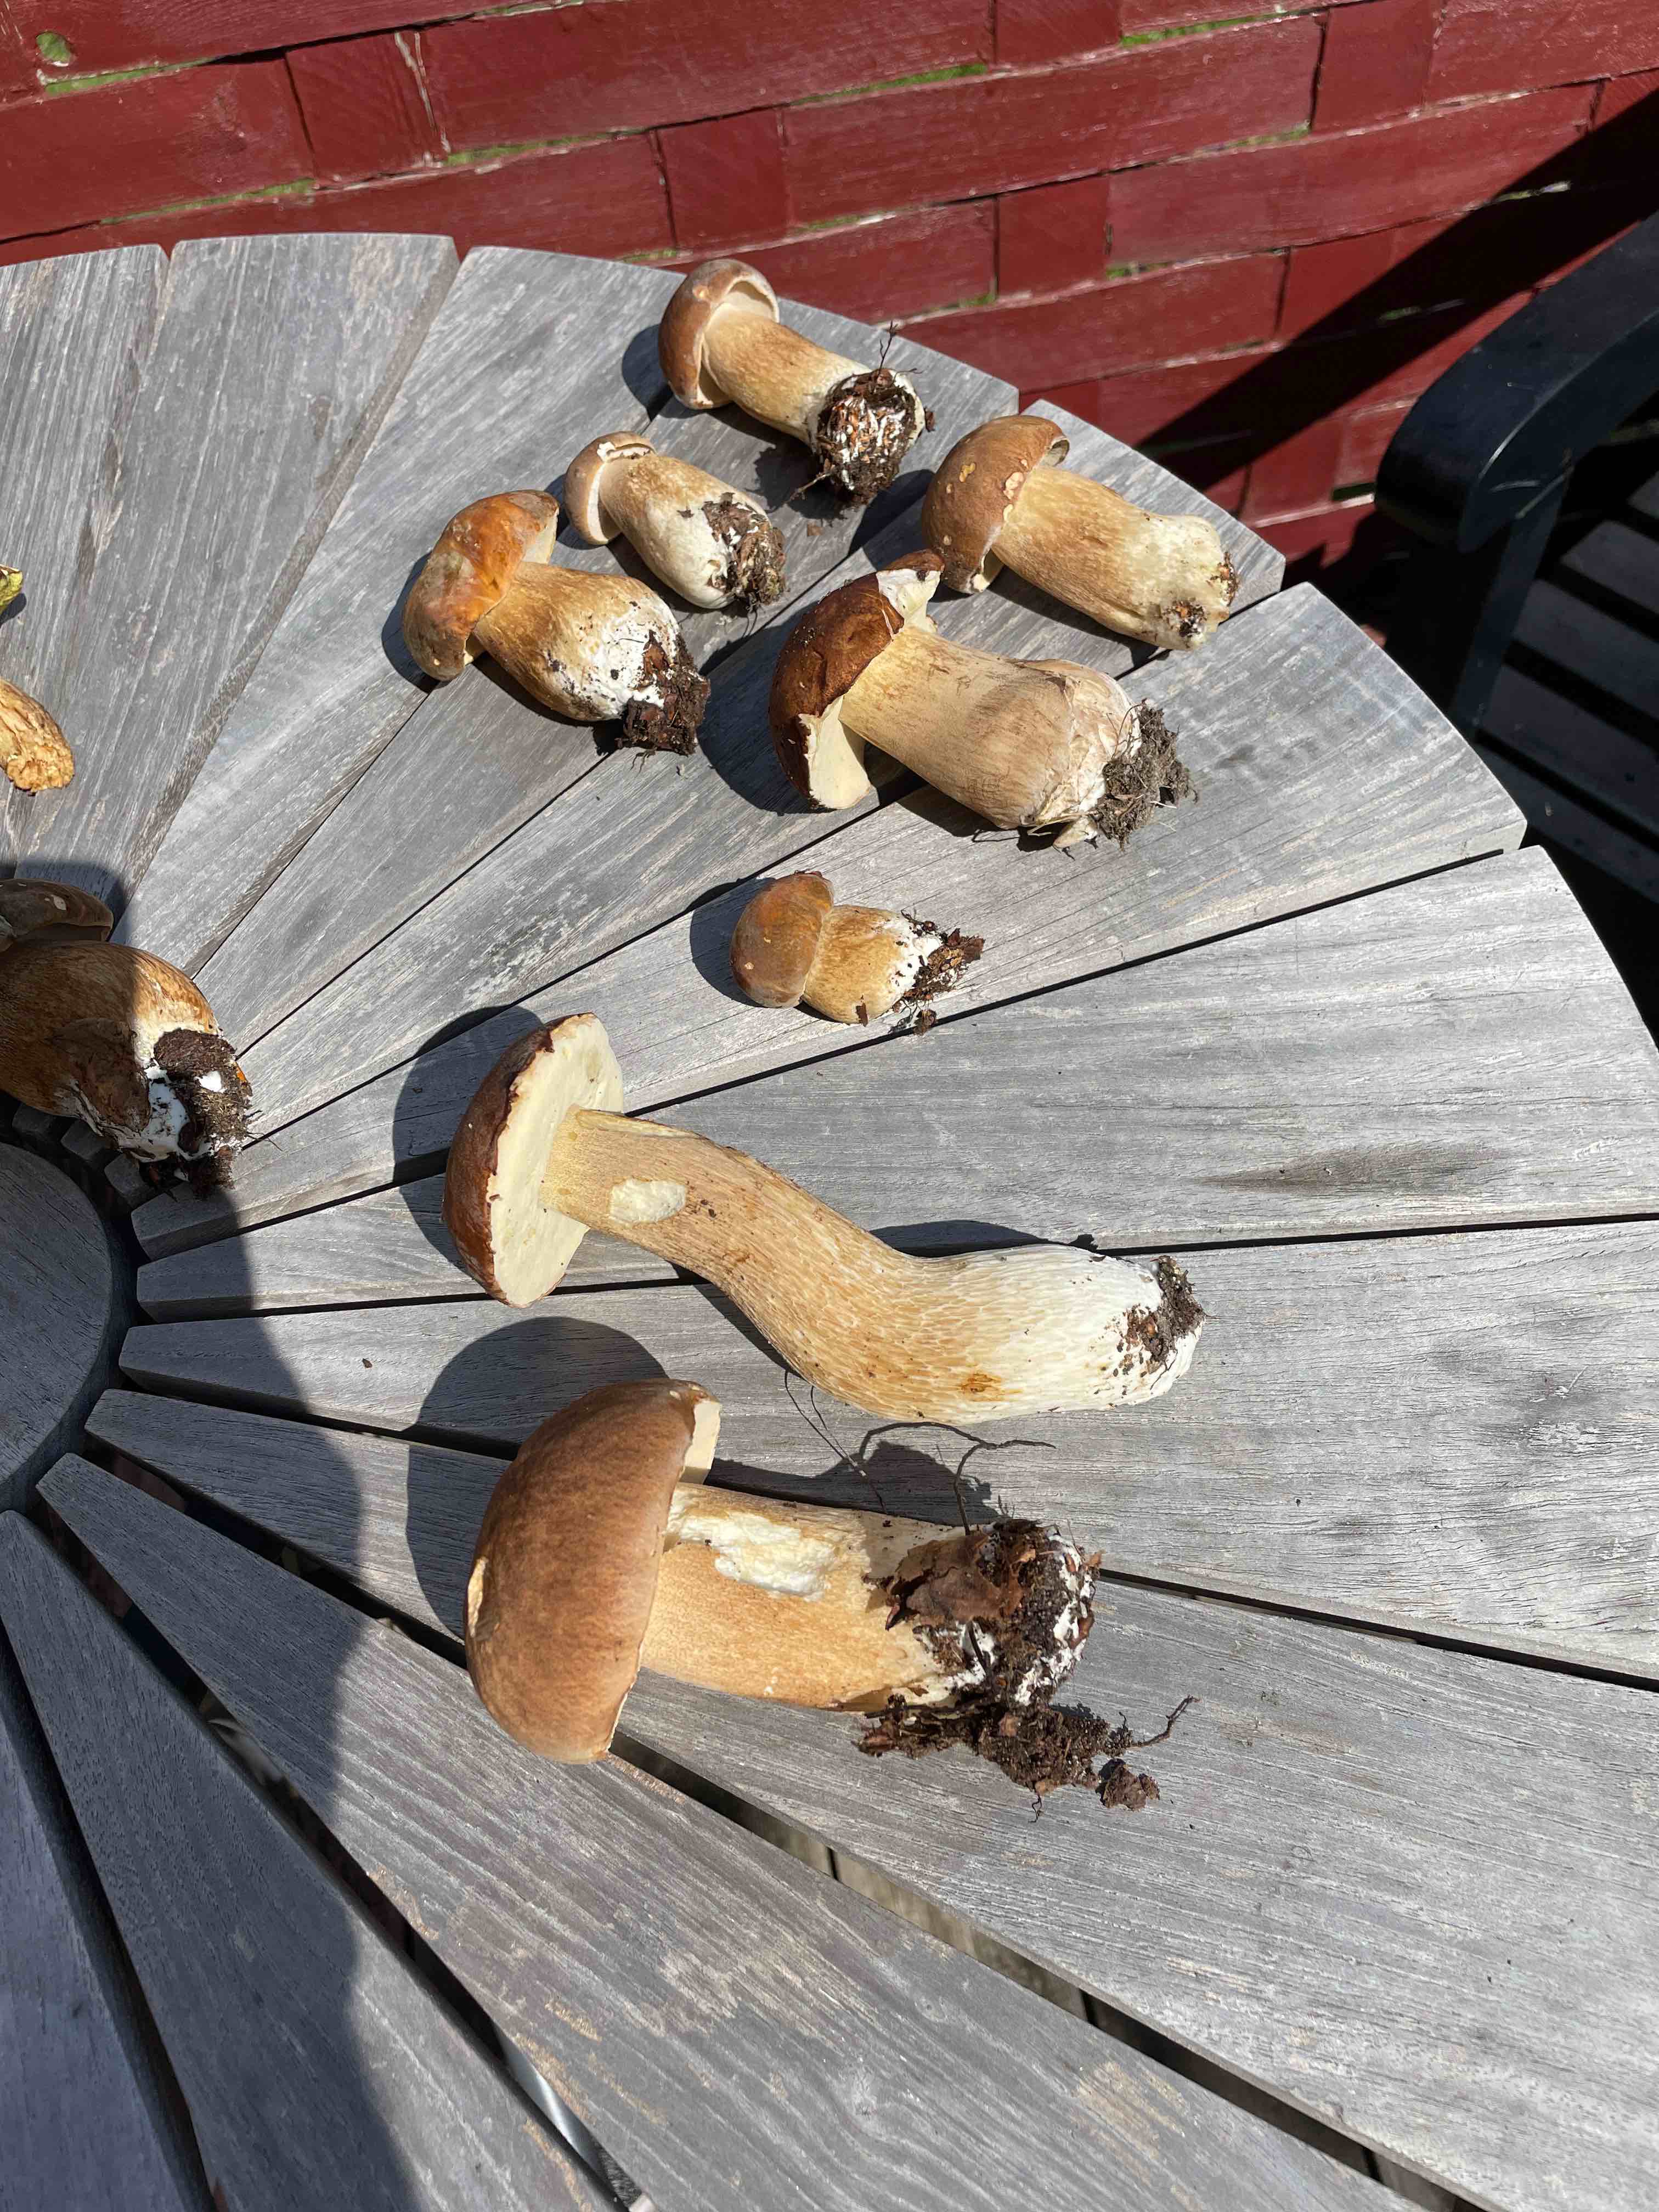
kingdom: Fungi
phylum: Basidiomycota
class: Agaricomycetes
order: Boletales
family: Boletaceae
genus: Boletus
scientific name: Boletus reticulatus
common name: sommer-rørhat
